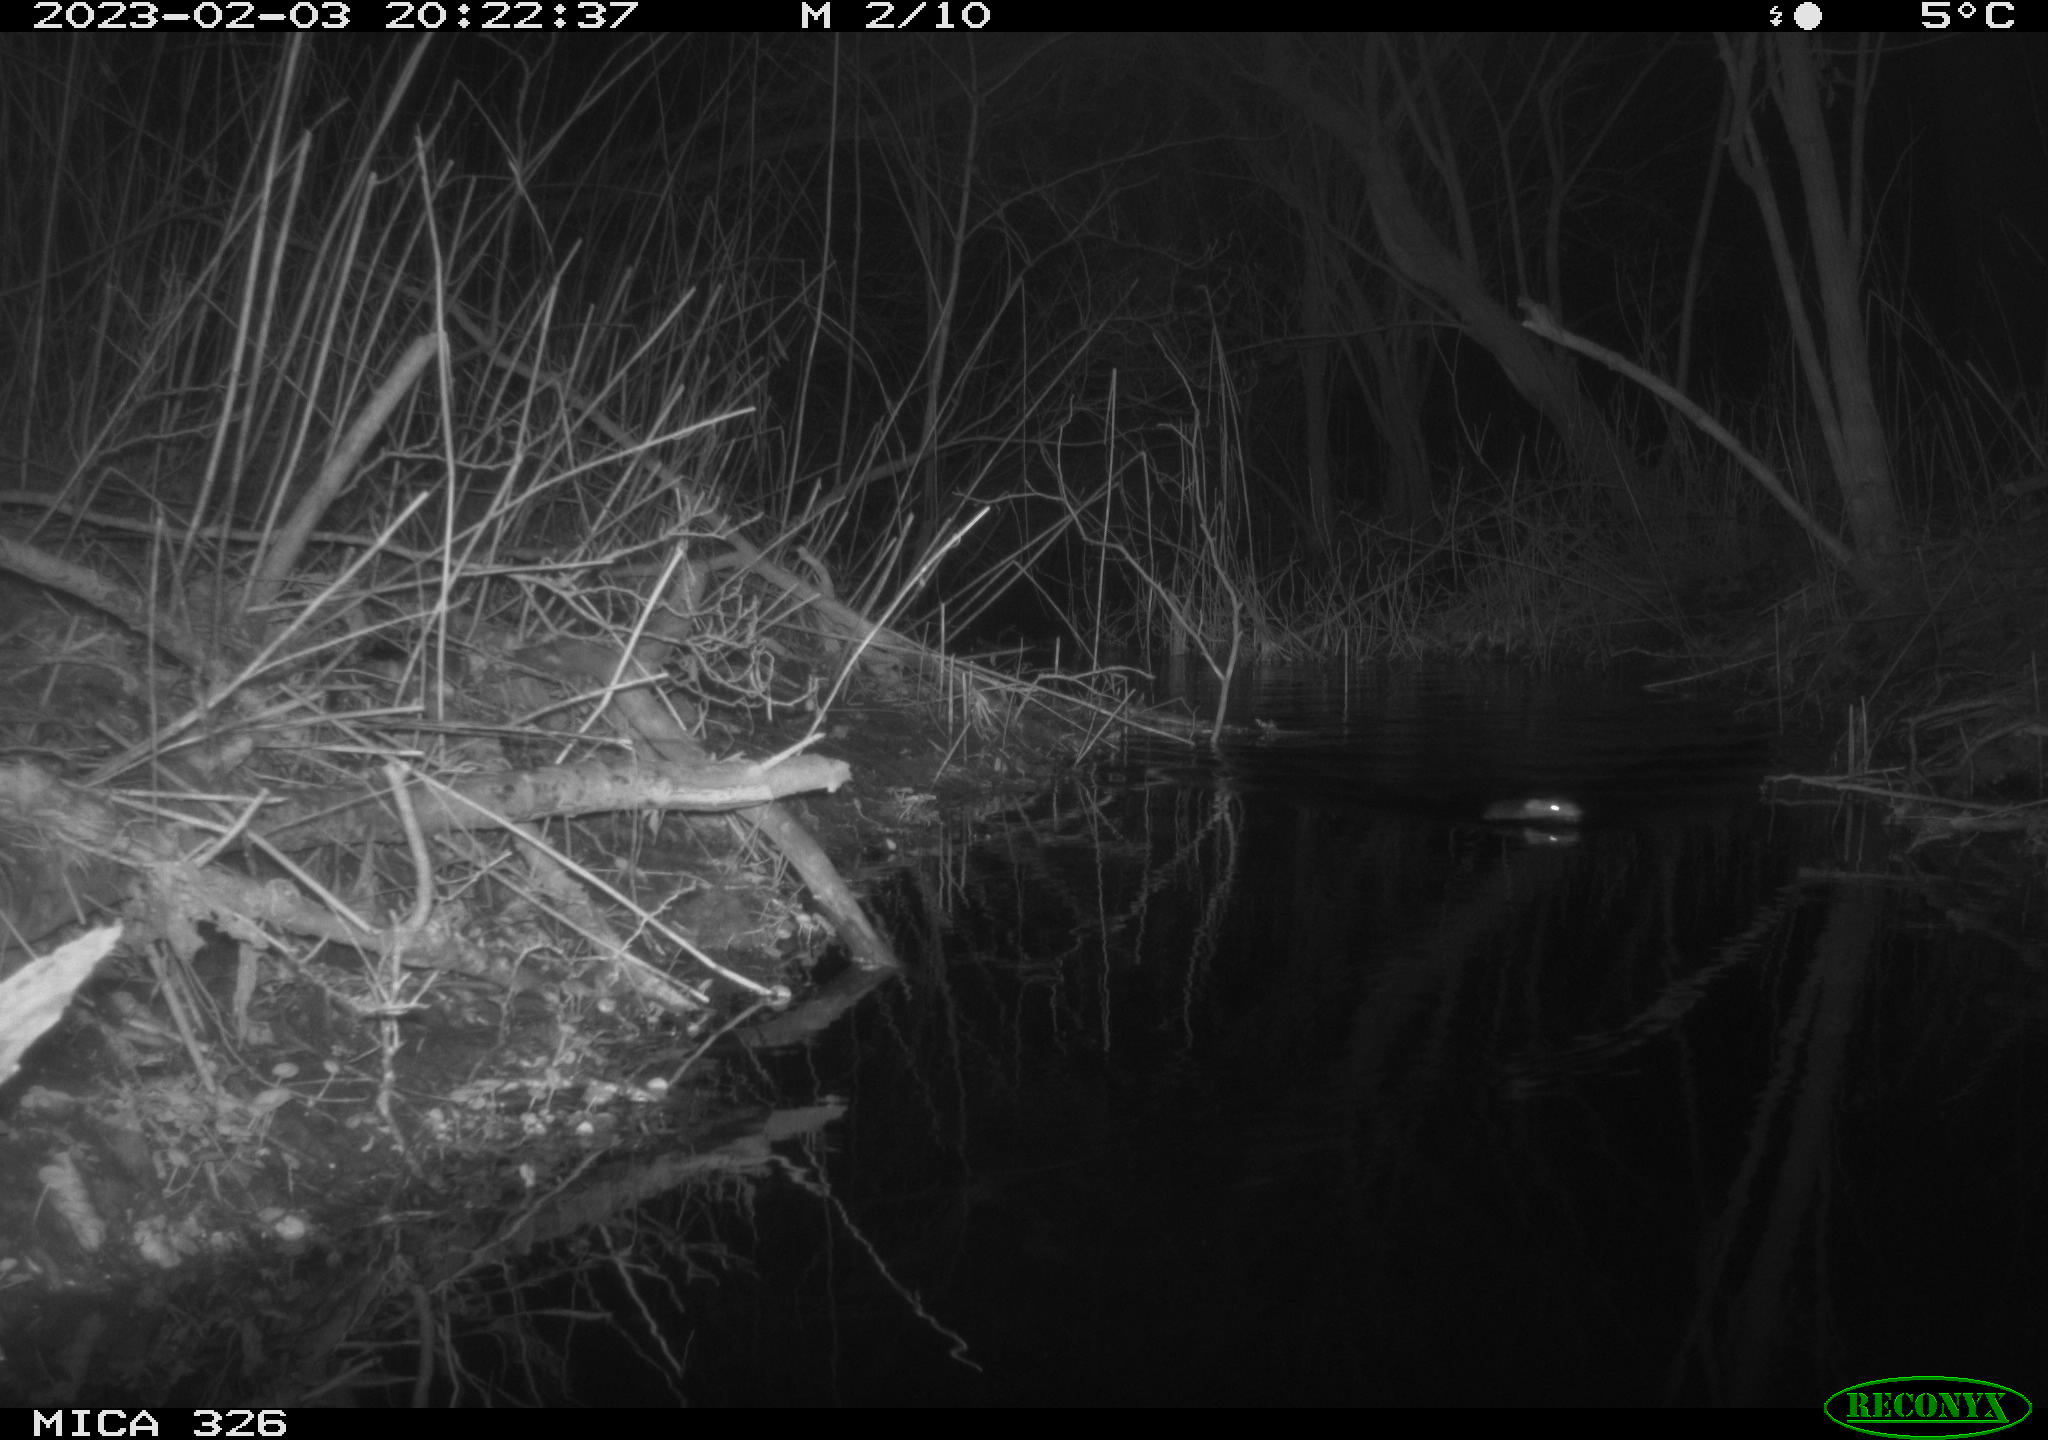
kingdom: Animalia
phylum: Chordata
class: Mammalia
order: Rodentia
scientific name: Rodentia
